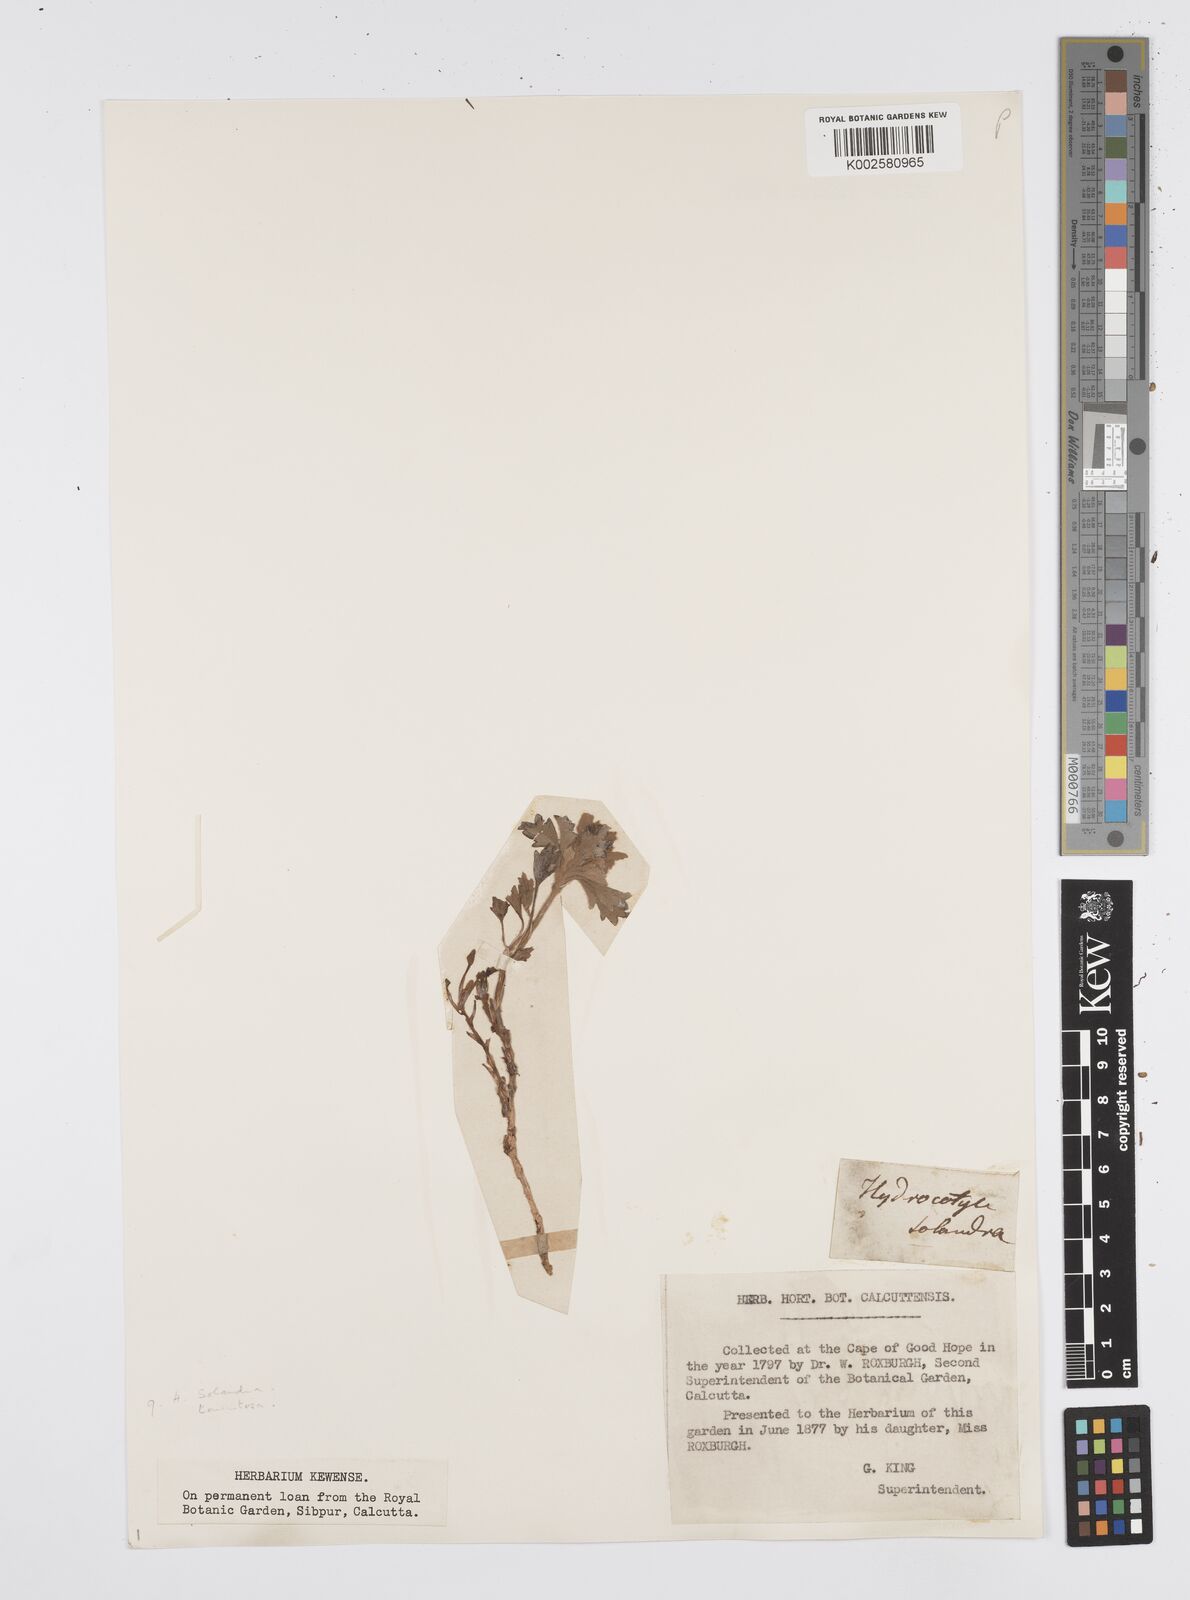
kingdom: Plantae
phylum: Tracheophyta
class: Magnoliopsida
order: Apiales
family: Apiaceae
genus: Centella
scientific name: Centella capensis
